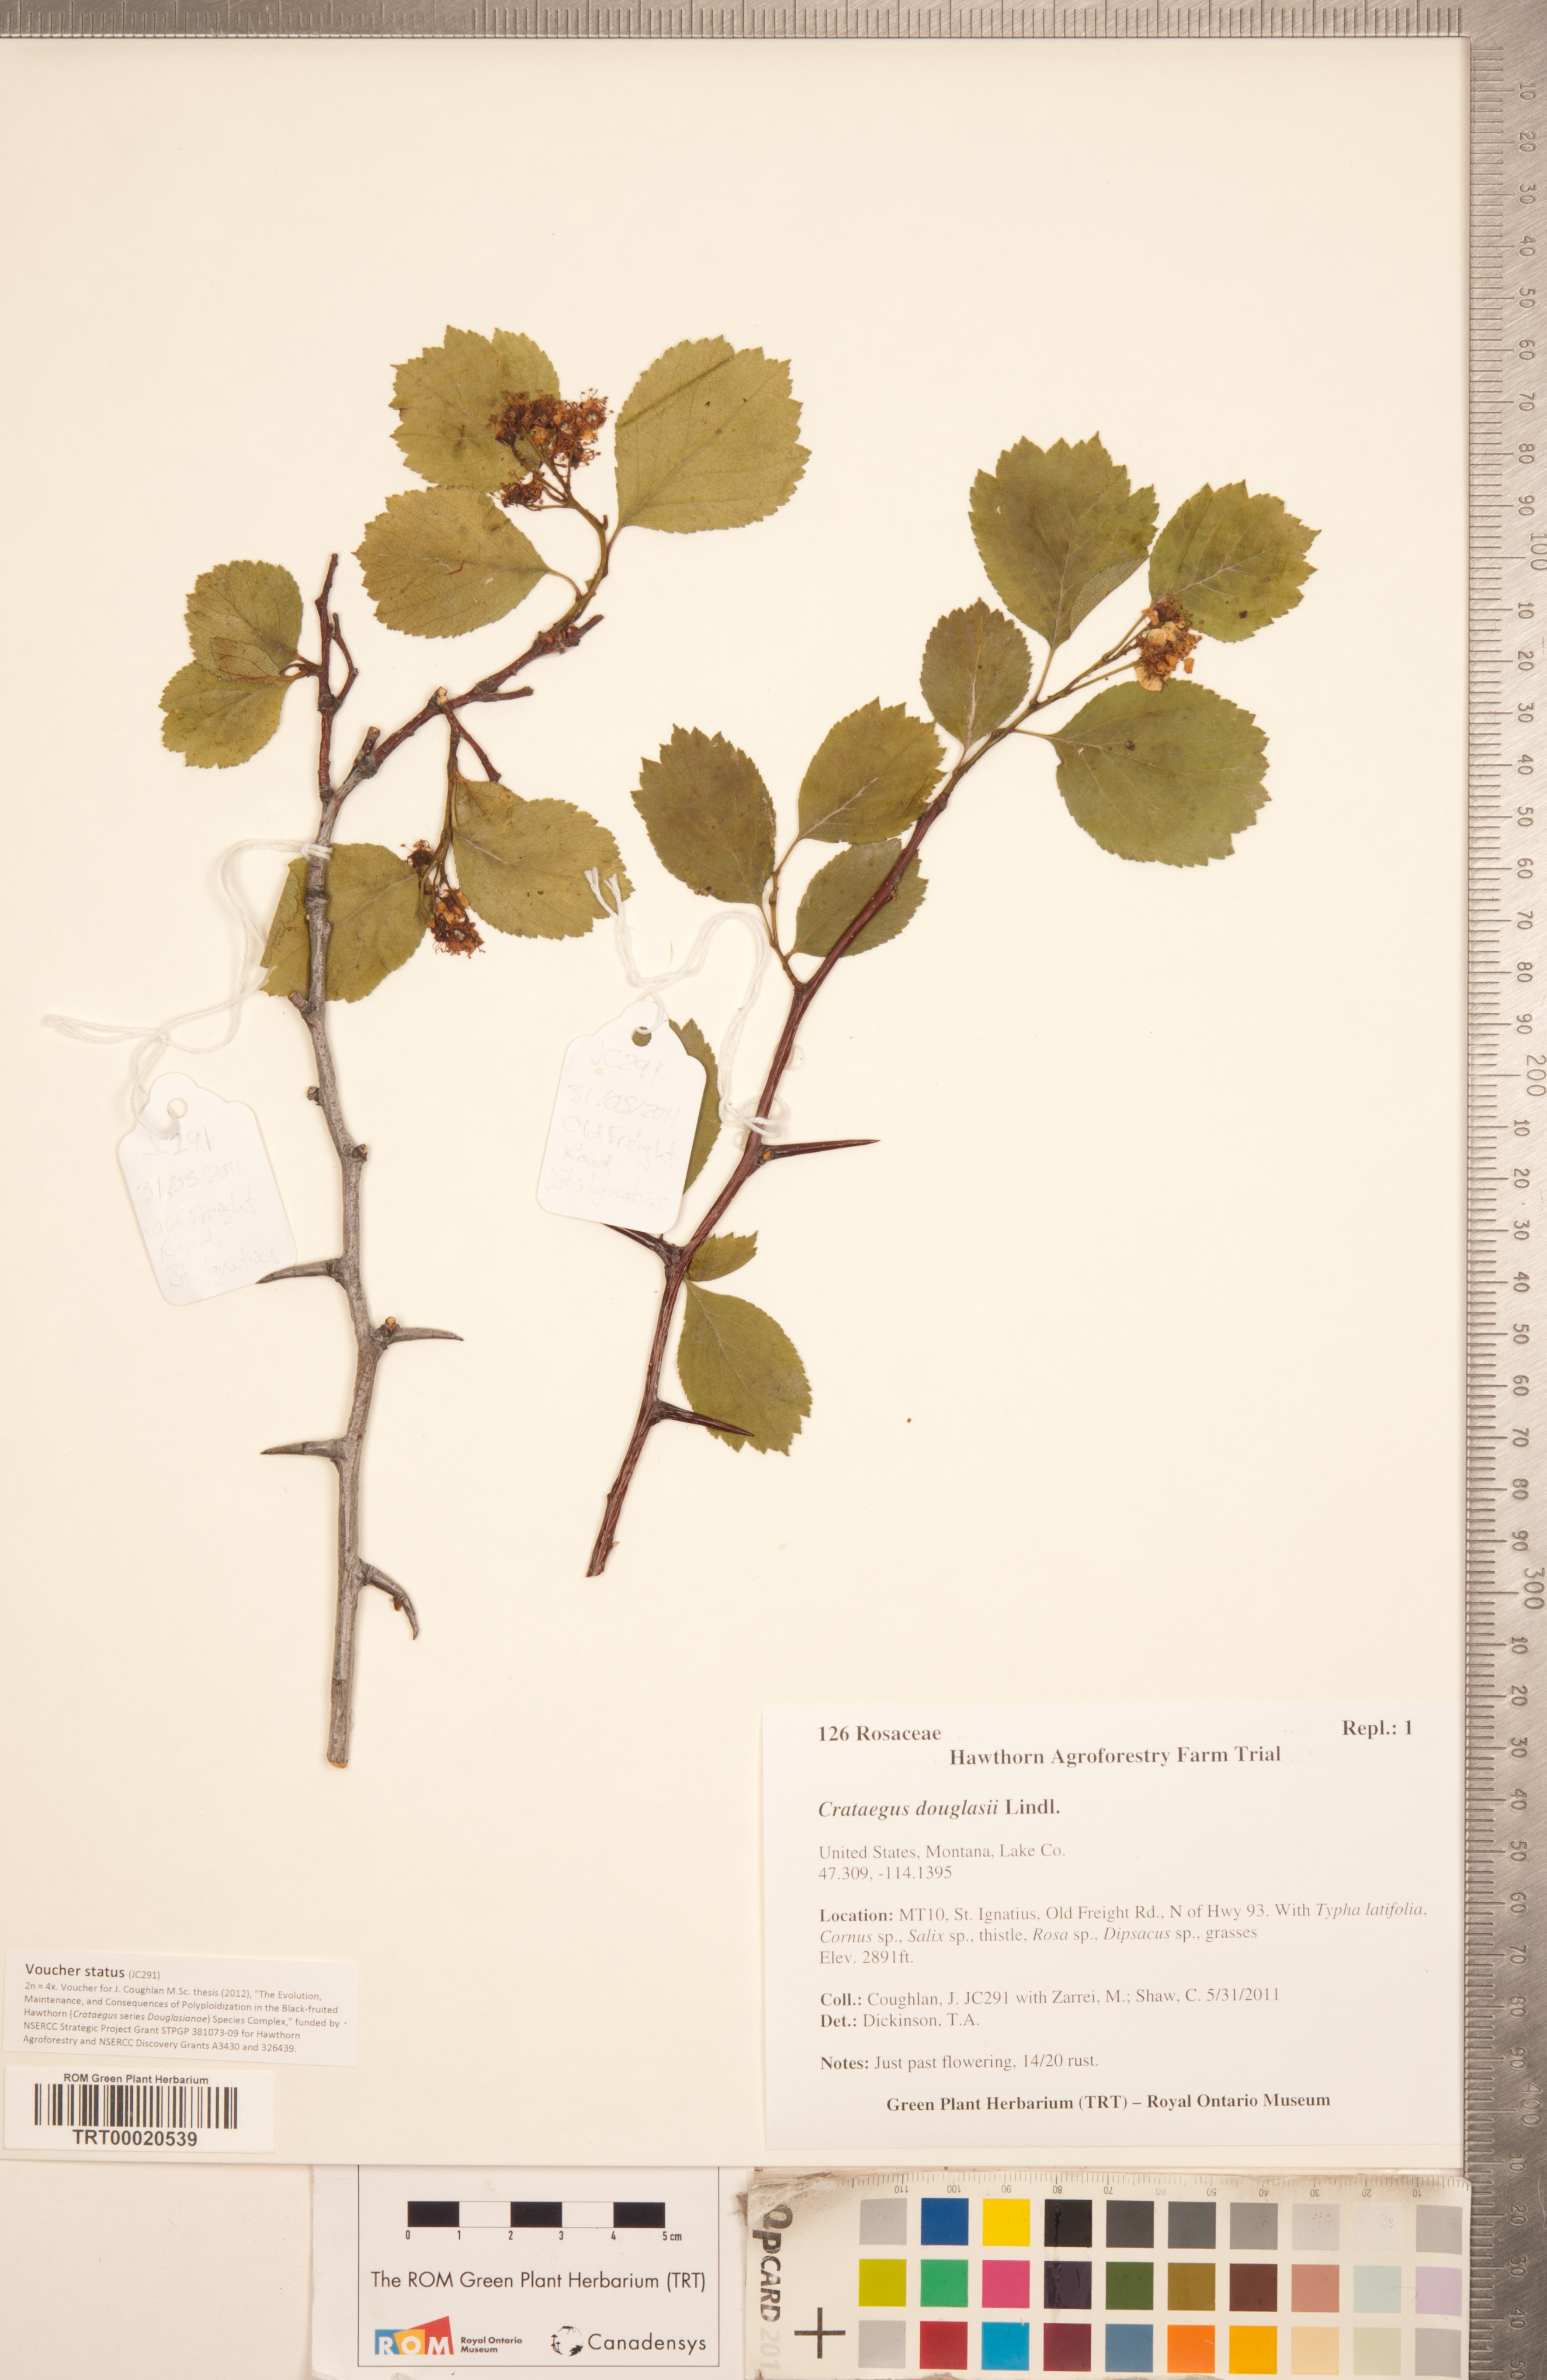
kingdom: Plantae
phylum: Tracheophyta
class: Magnoliopsida
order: Rosales
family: Rosaceae
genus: Crataegus
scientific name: Crataegus douglasii
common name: Black hawthorn
